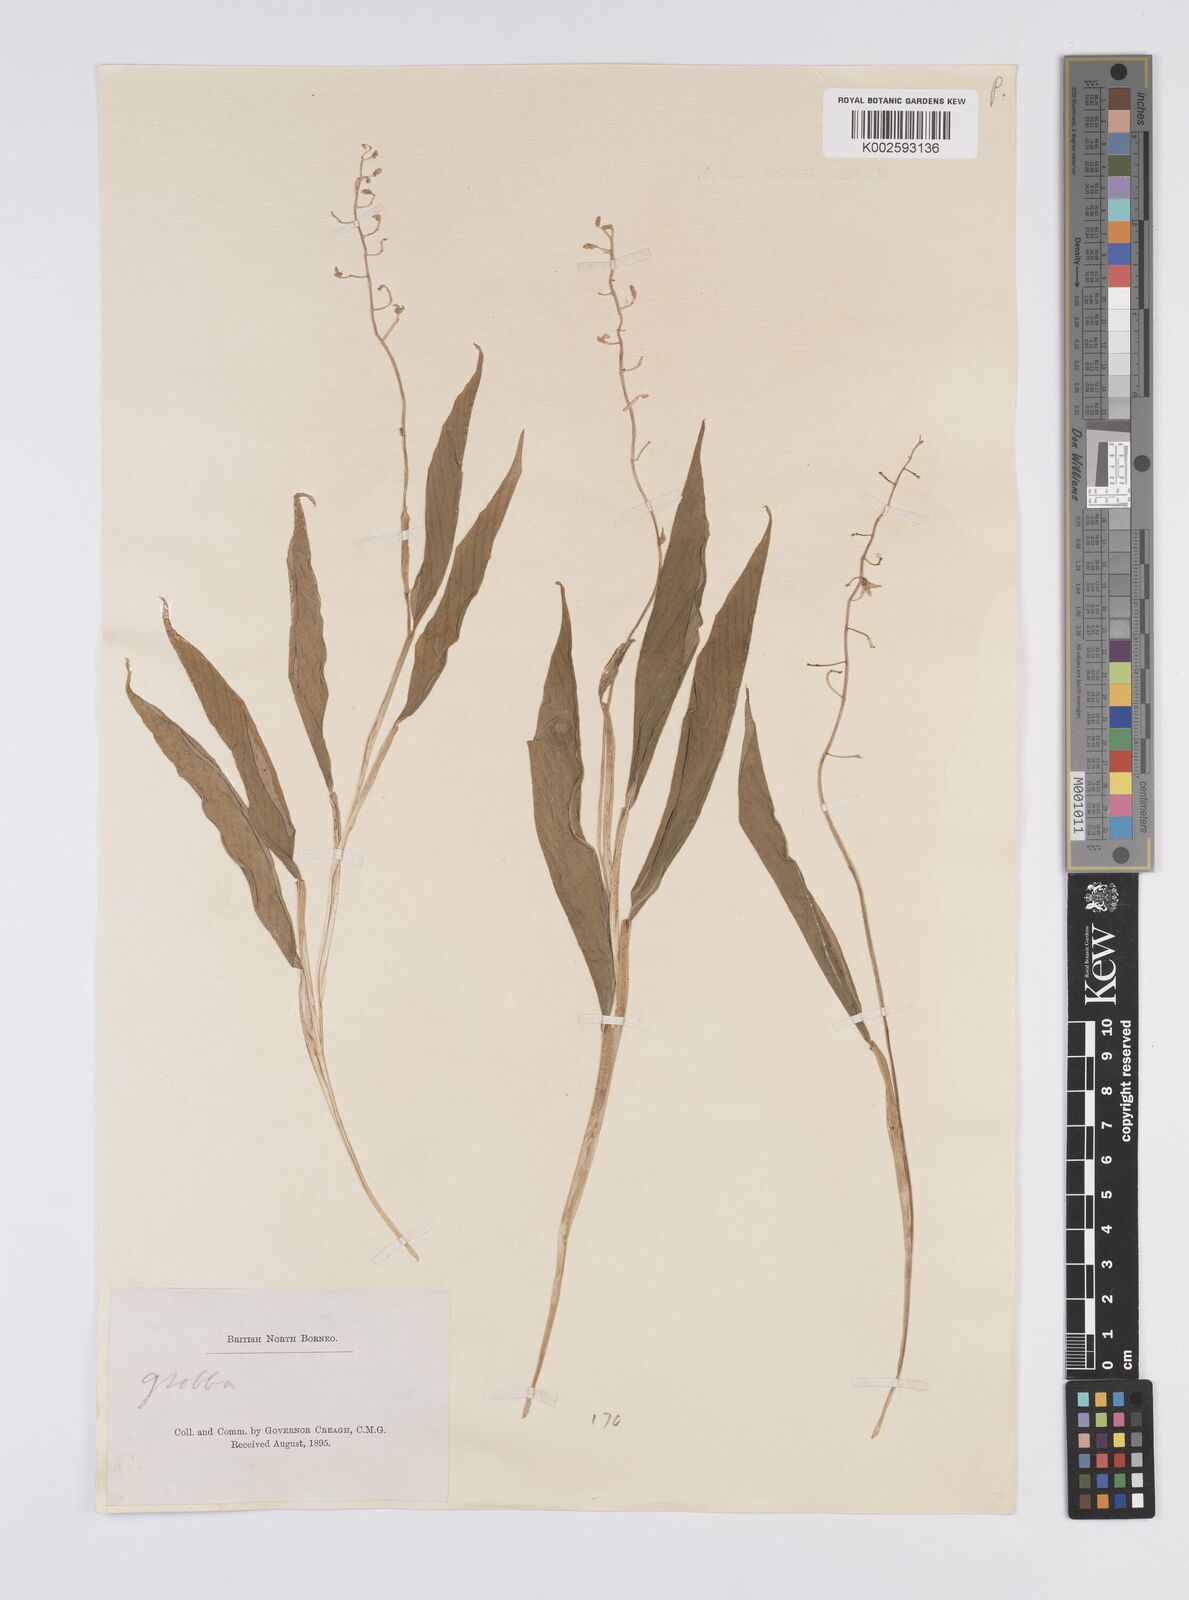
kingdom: Plantae
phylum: Tracheophyta
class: Liliopsida
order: Zingiberales
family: Zingiberaceae
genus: Globba
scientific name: Globba pendula
